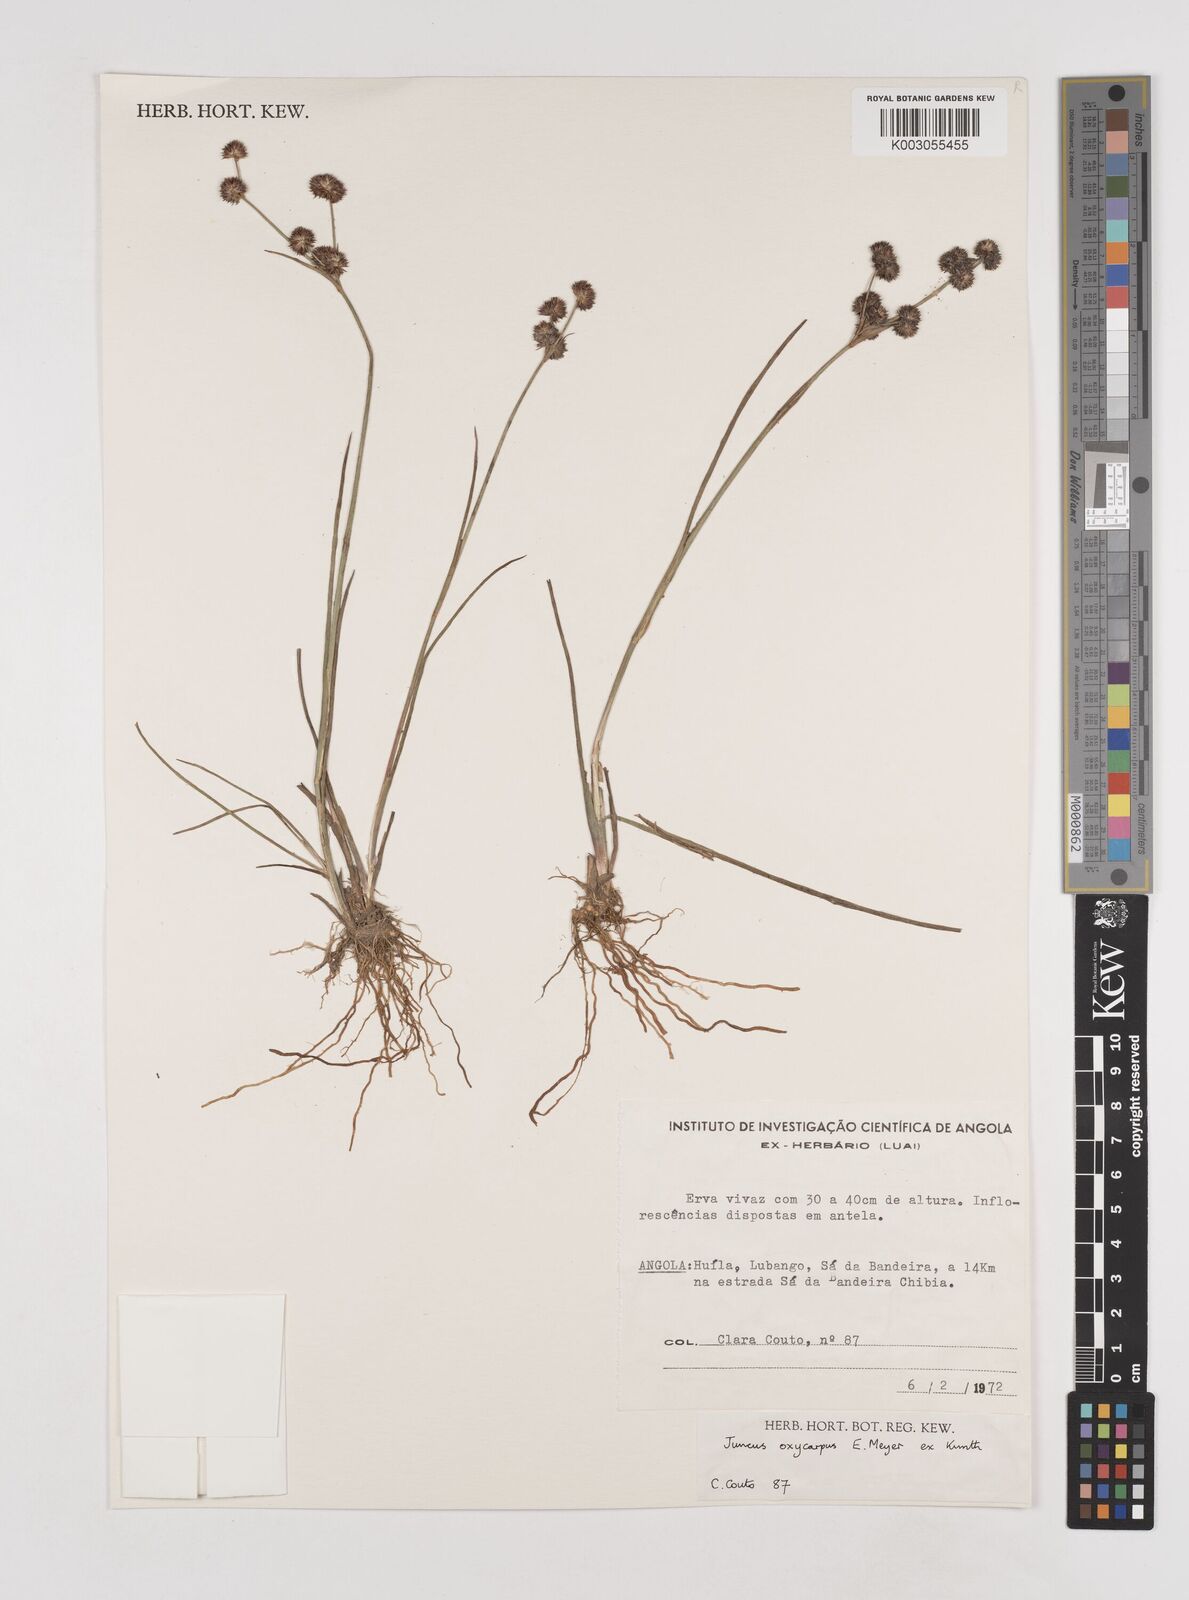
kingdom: Plantae
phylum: Tracheophyta
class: Liliopsida
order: Poales
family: Juncaceae
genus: Juncus
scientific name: Juncus oxycarpus
